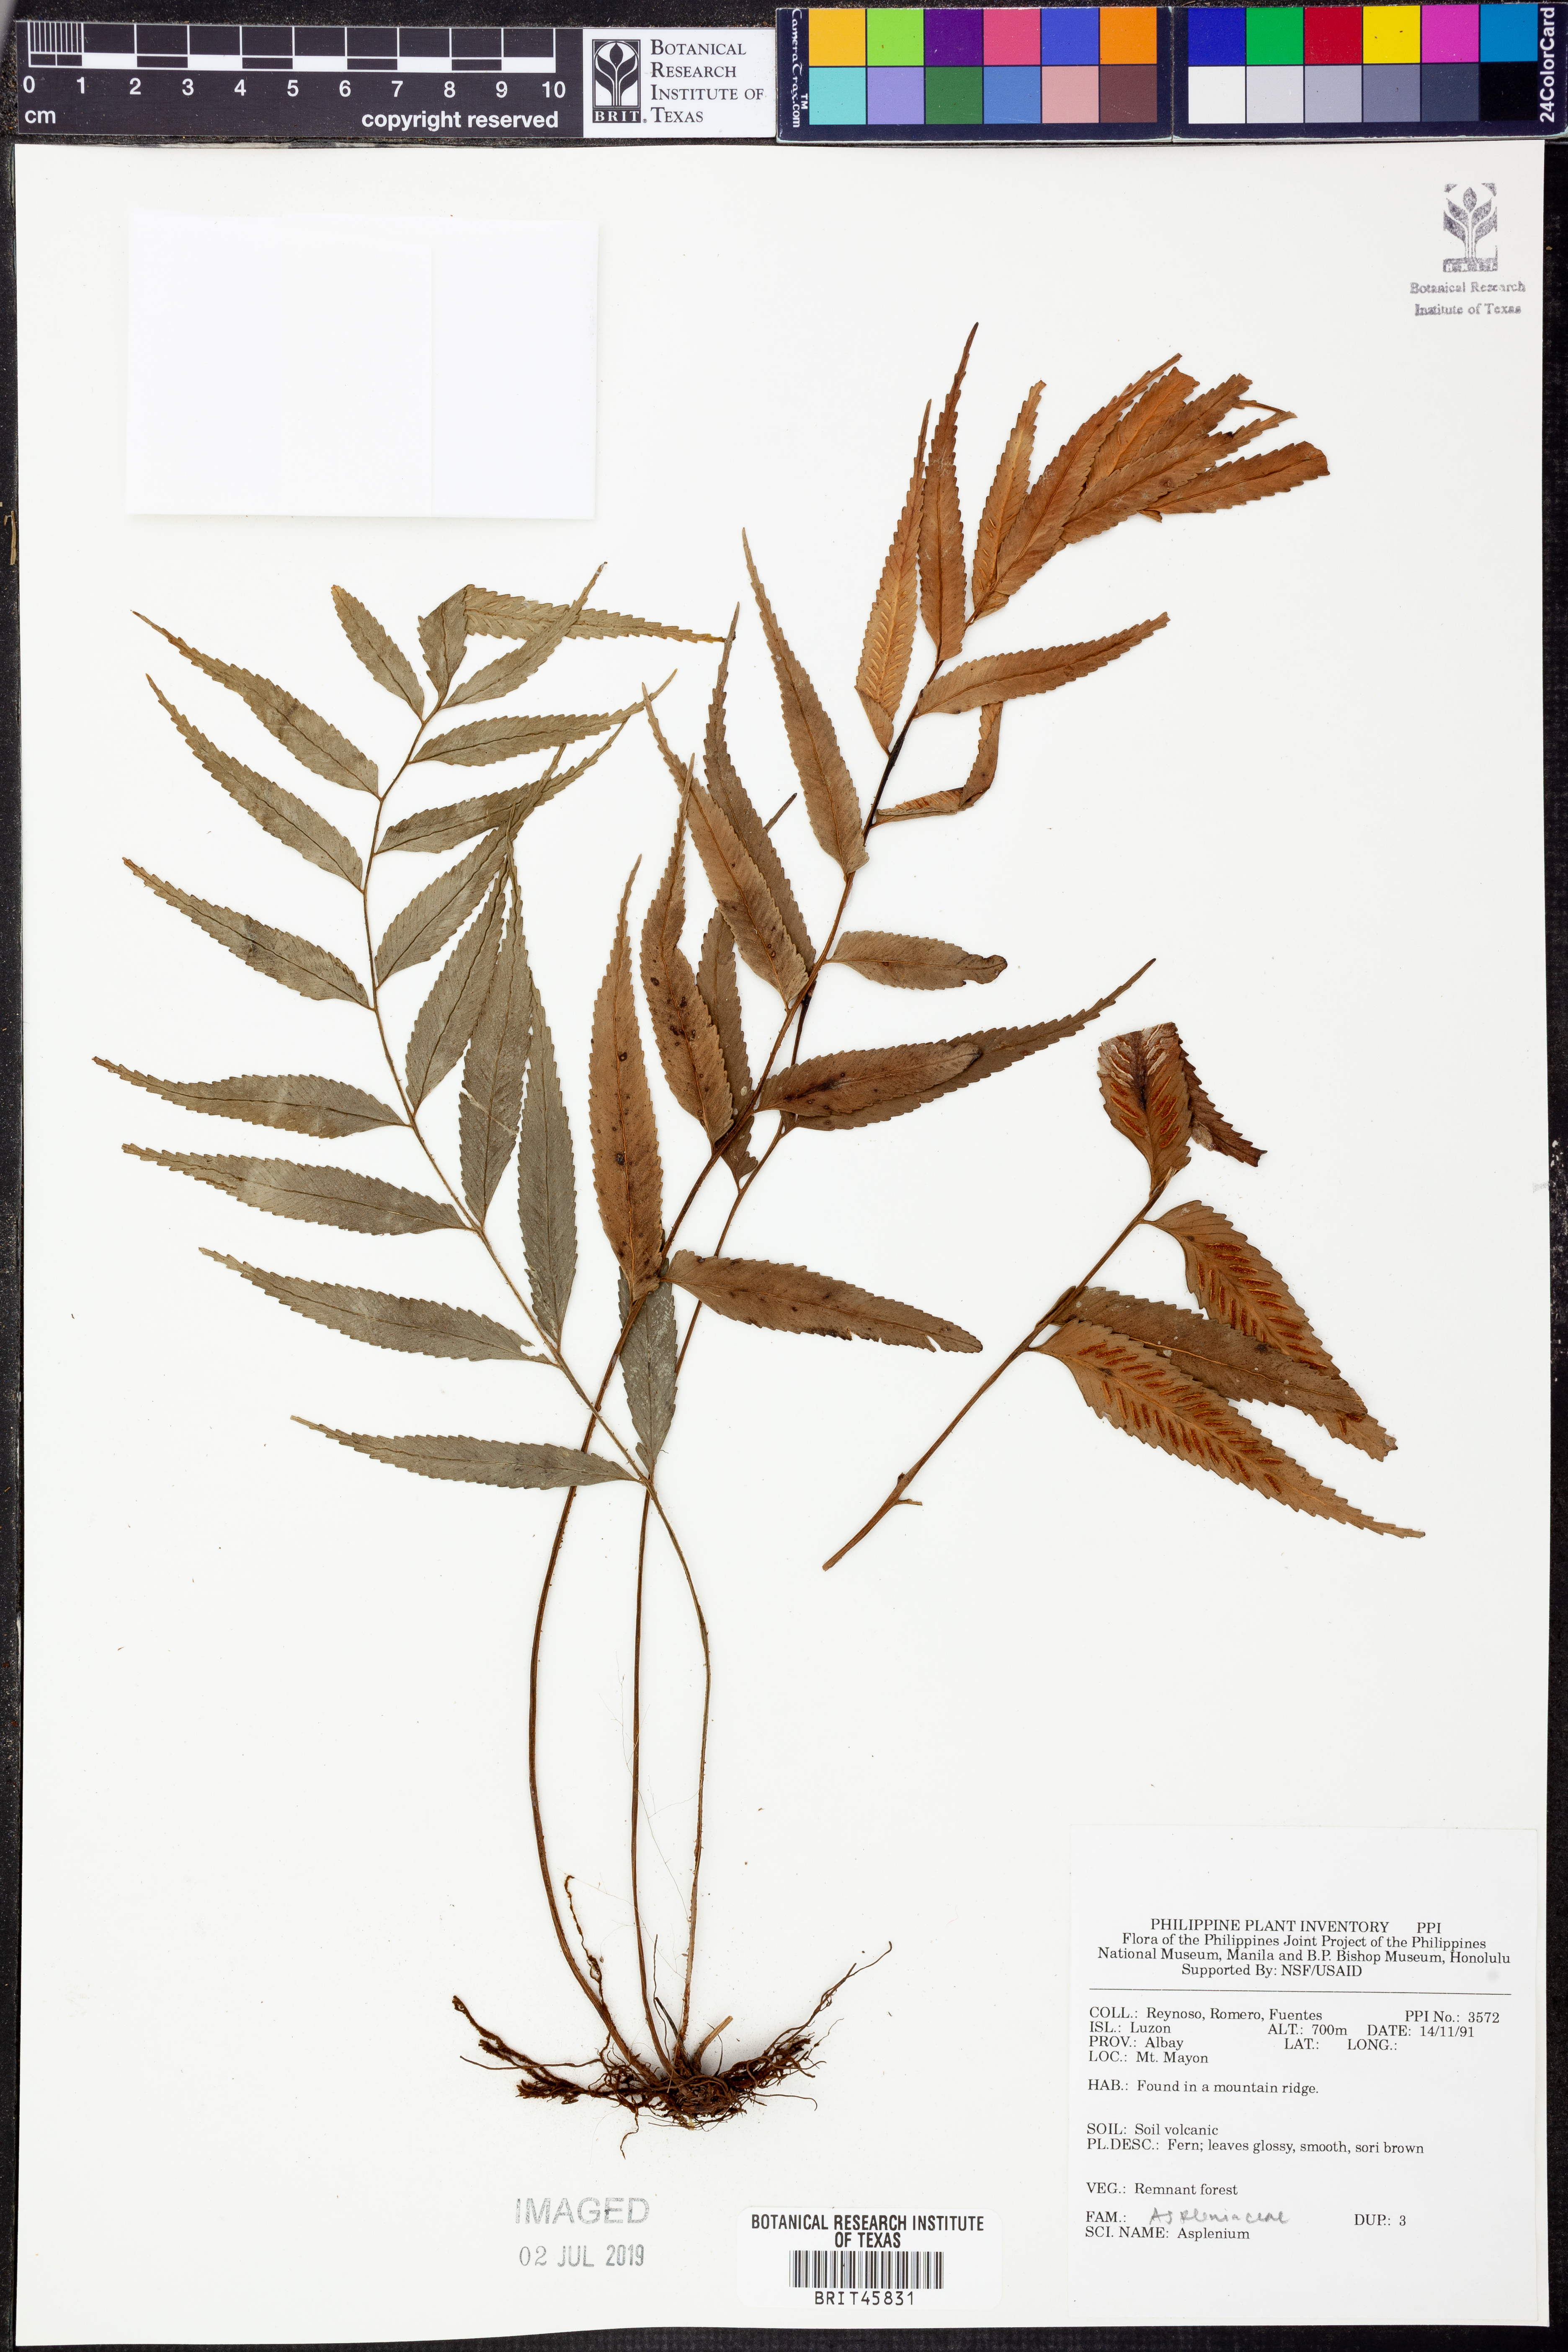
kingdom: Plantae
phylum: Tracheophyta
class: Polypodiopsida
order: Polypodiales
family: Aspleniaceae
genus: Asplenium
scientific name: Asplenium
